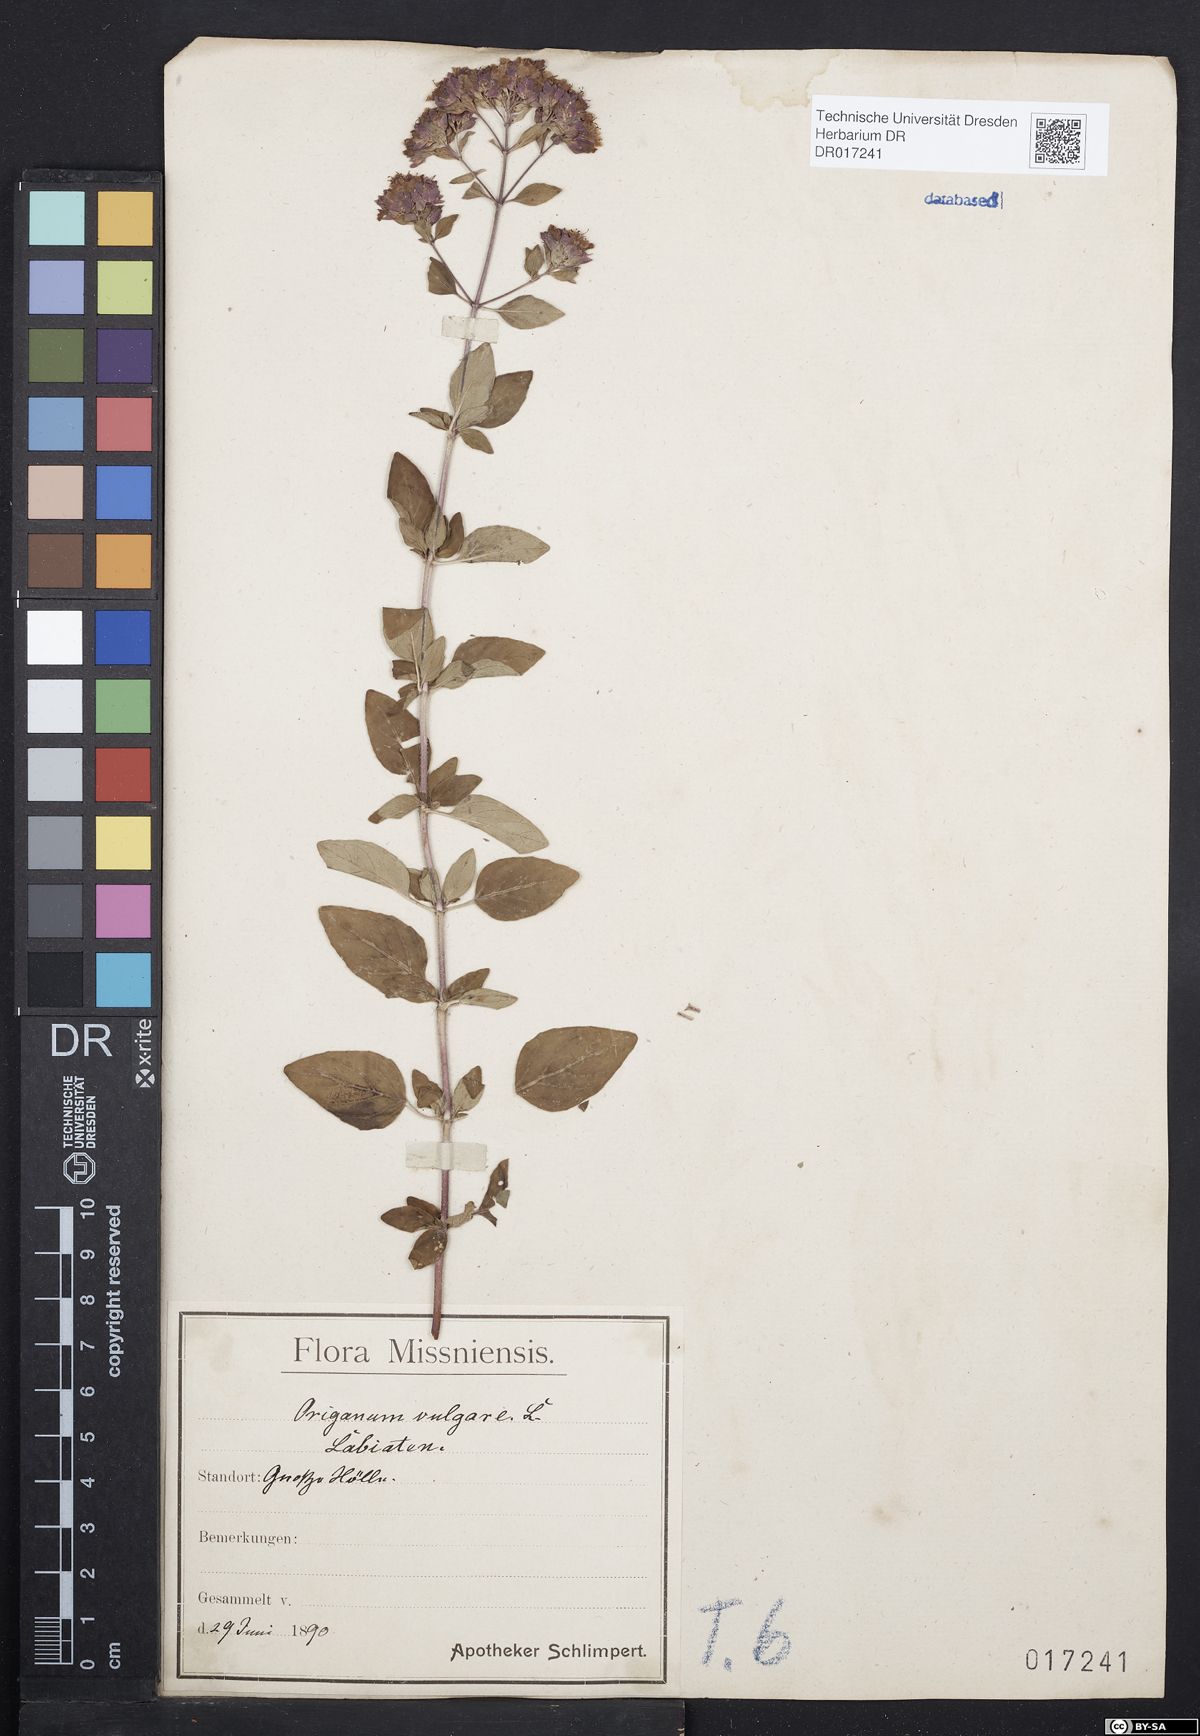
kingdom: Plantae
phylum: Tracheophyta
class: Magnoliopsida
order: Lamiales
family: Lamiaceae
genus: Origanum
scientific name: Origanum vulgare
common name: Wild marjoram
